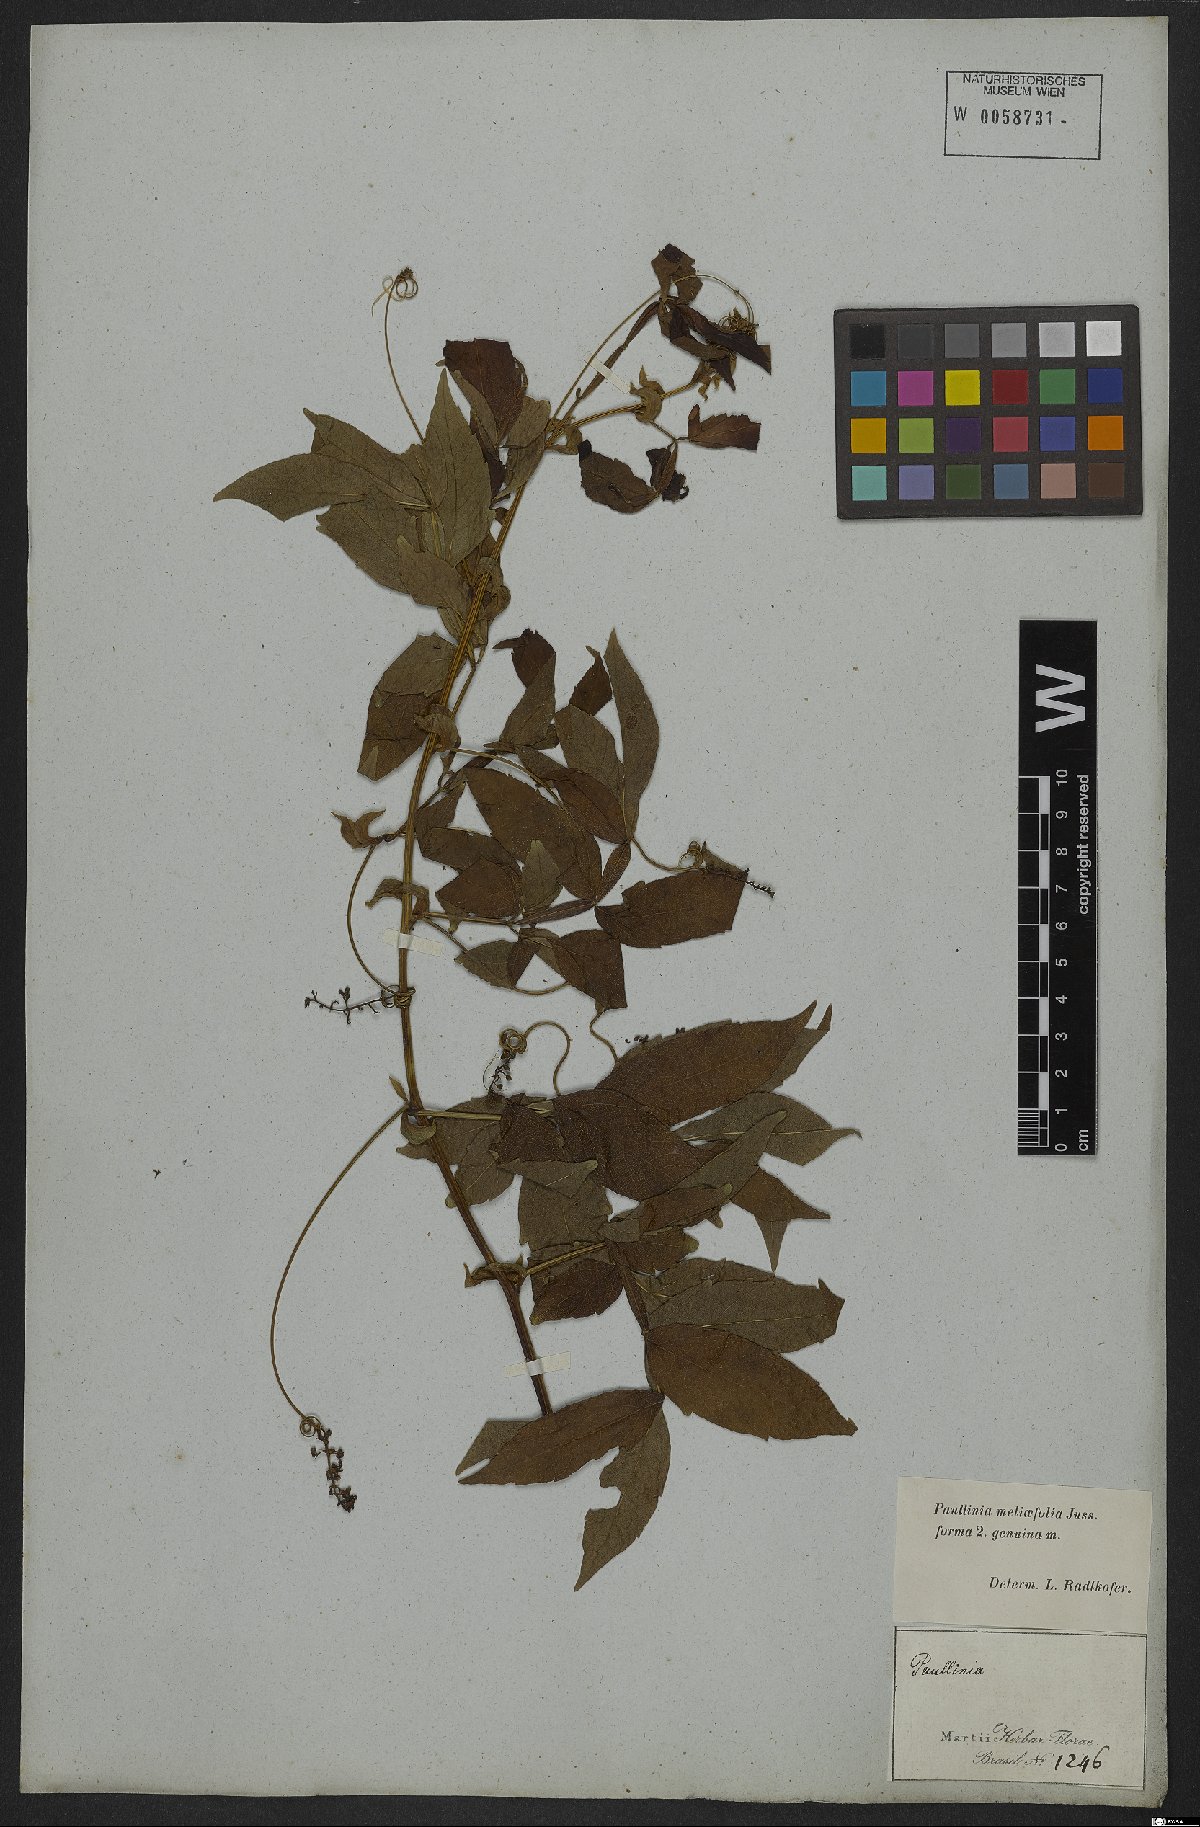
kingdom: Plantae
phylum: Tracheophyta
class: Magnoliopsida
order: Sapindales
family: Sapindaceae
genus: Paullinia
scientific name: Paullinia meliifolia
